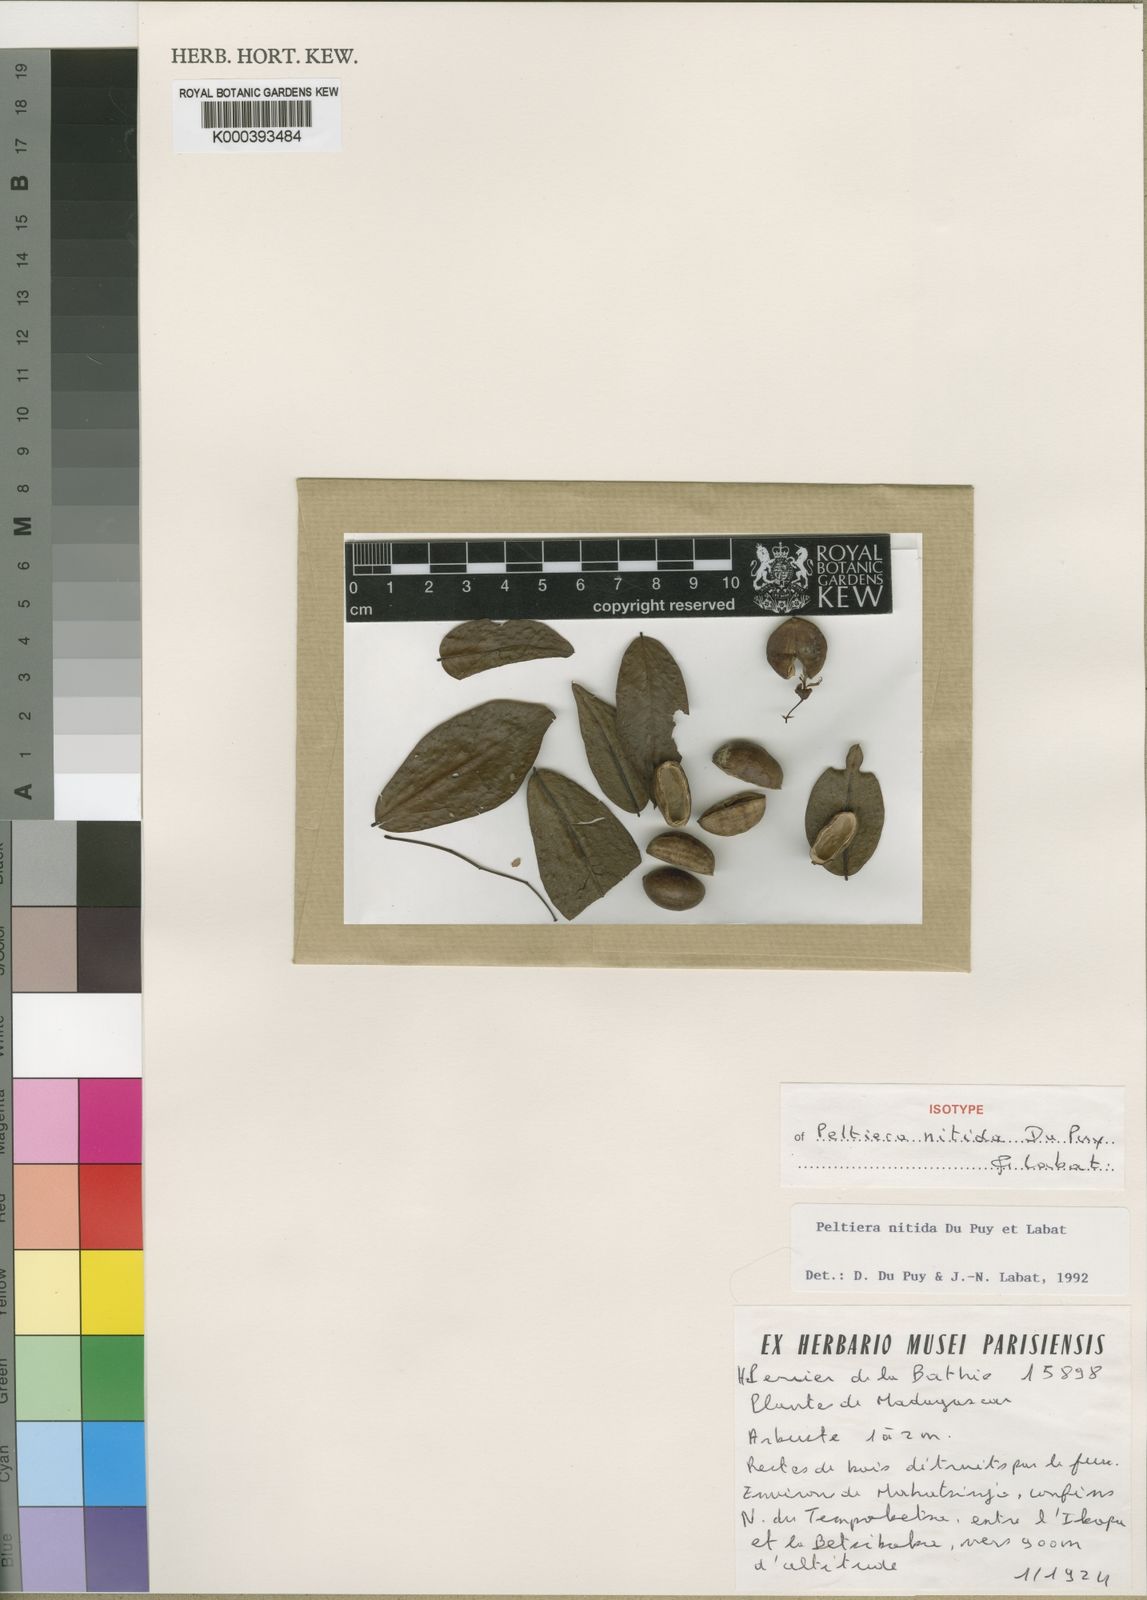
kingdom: Plantae
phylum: Tracheophyta
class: Magnoliopsida
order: Fabales
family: Fabaceae
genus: Ormocarpopsis
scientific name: Ormocarpopsis nitida
